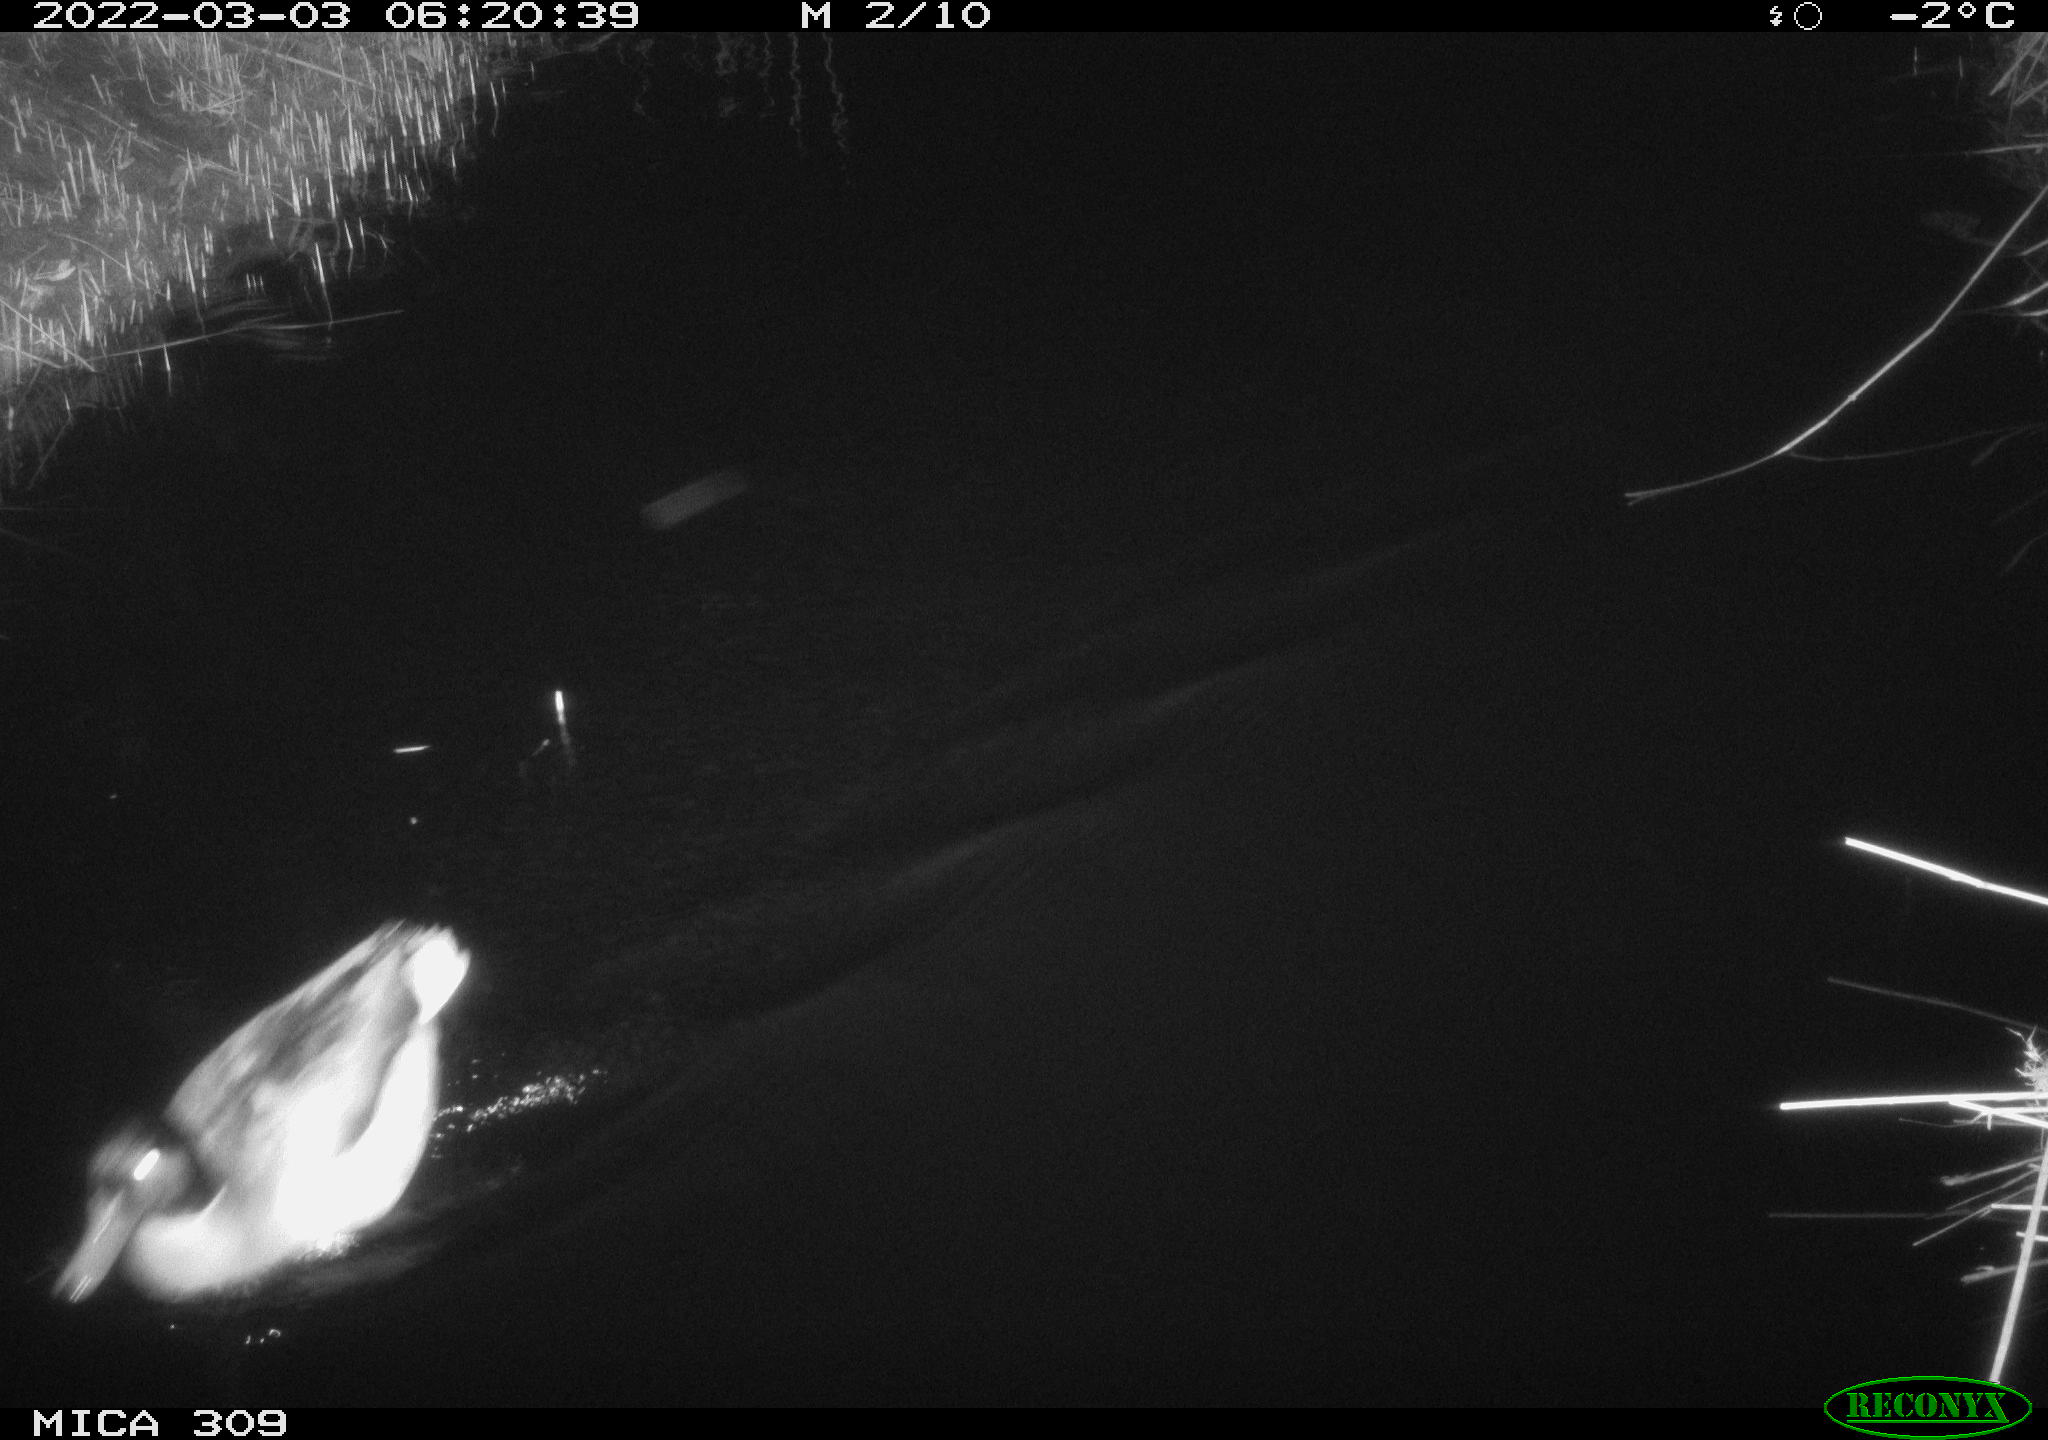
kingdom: Animalia
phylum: Chordata
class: Aves
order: Anseriformes
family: Anatidae
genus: Anas
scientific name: Anas platyrhynchos
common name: Mallard
